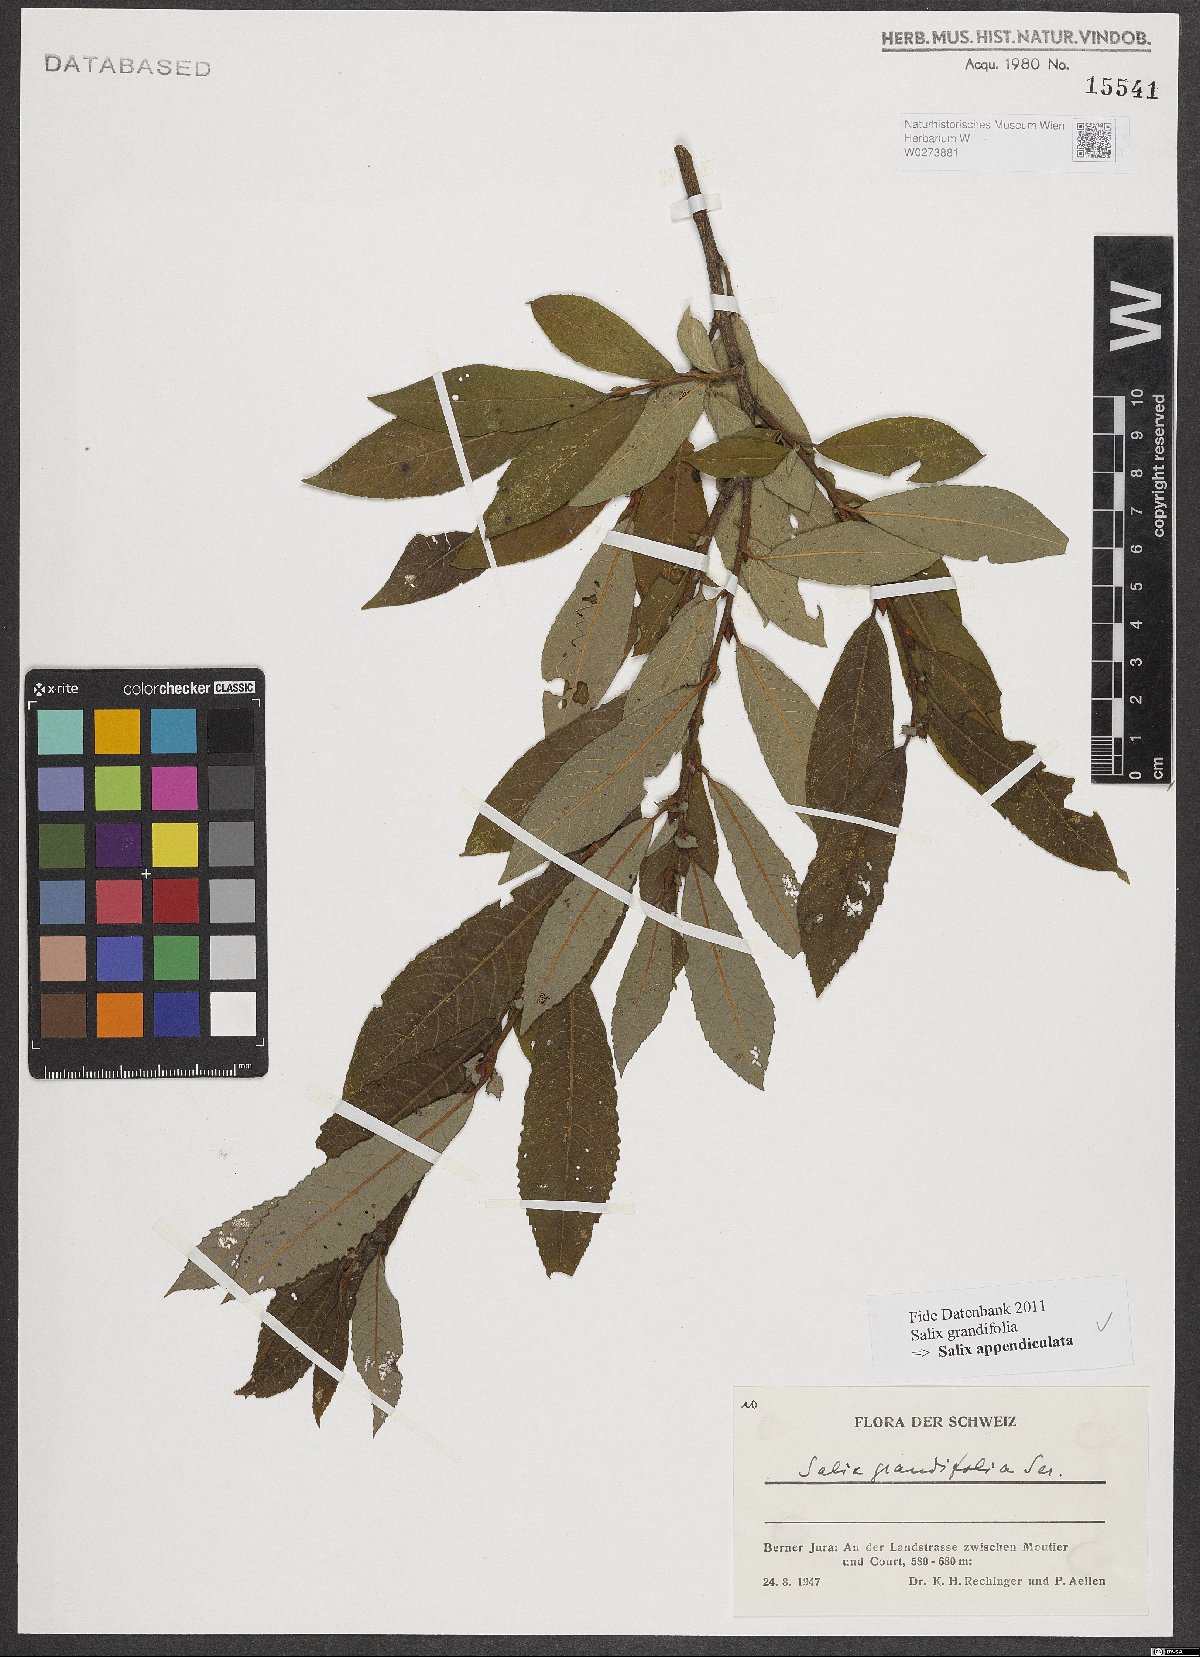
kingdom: Plantae
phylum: Tracheophyta
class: Magnoliopsida
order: Malpighiales
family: Salicaceae
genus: Salix
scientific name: Salix appendiculata
